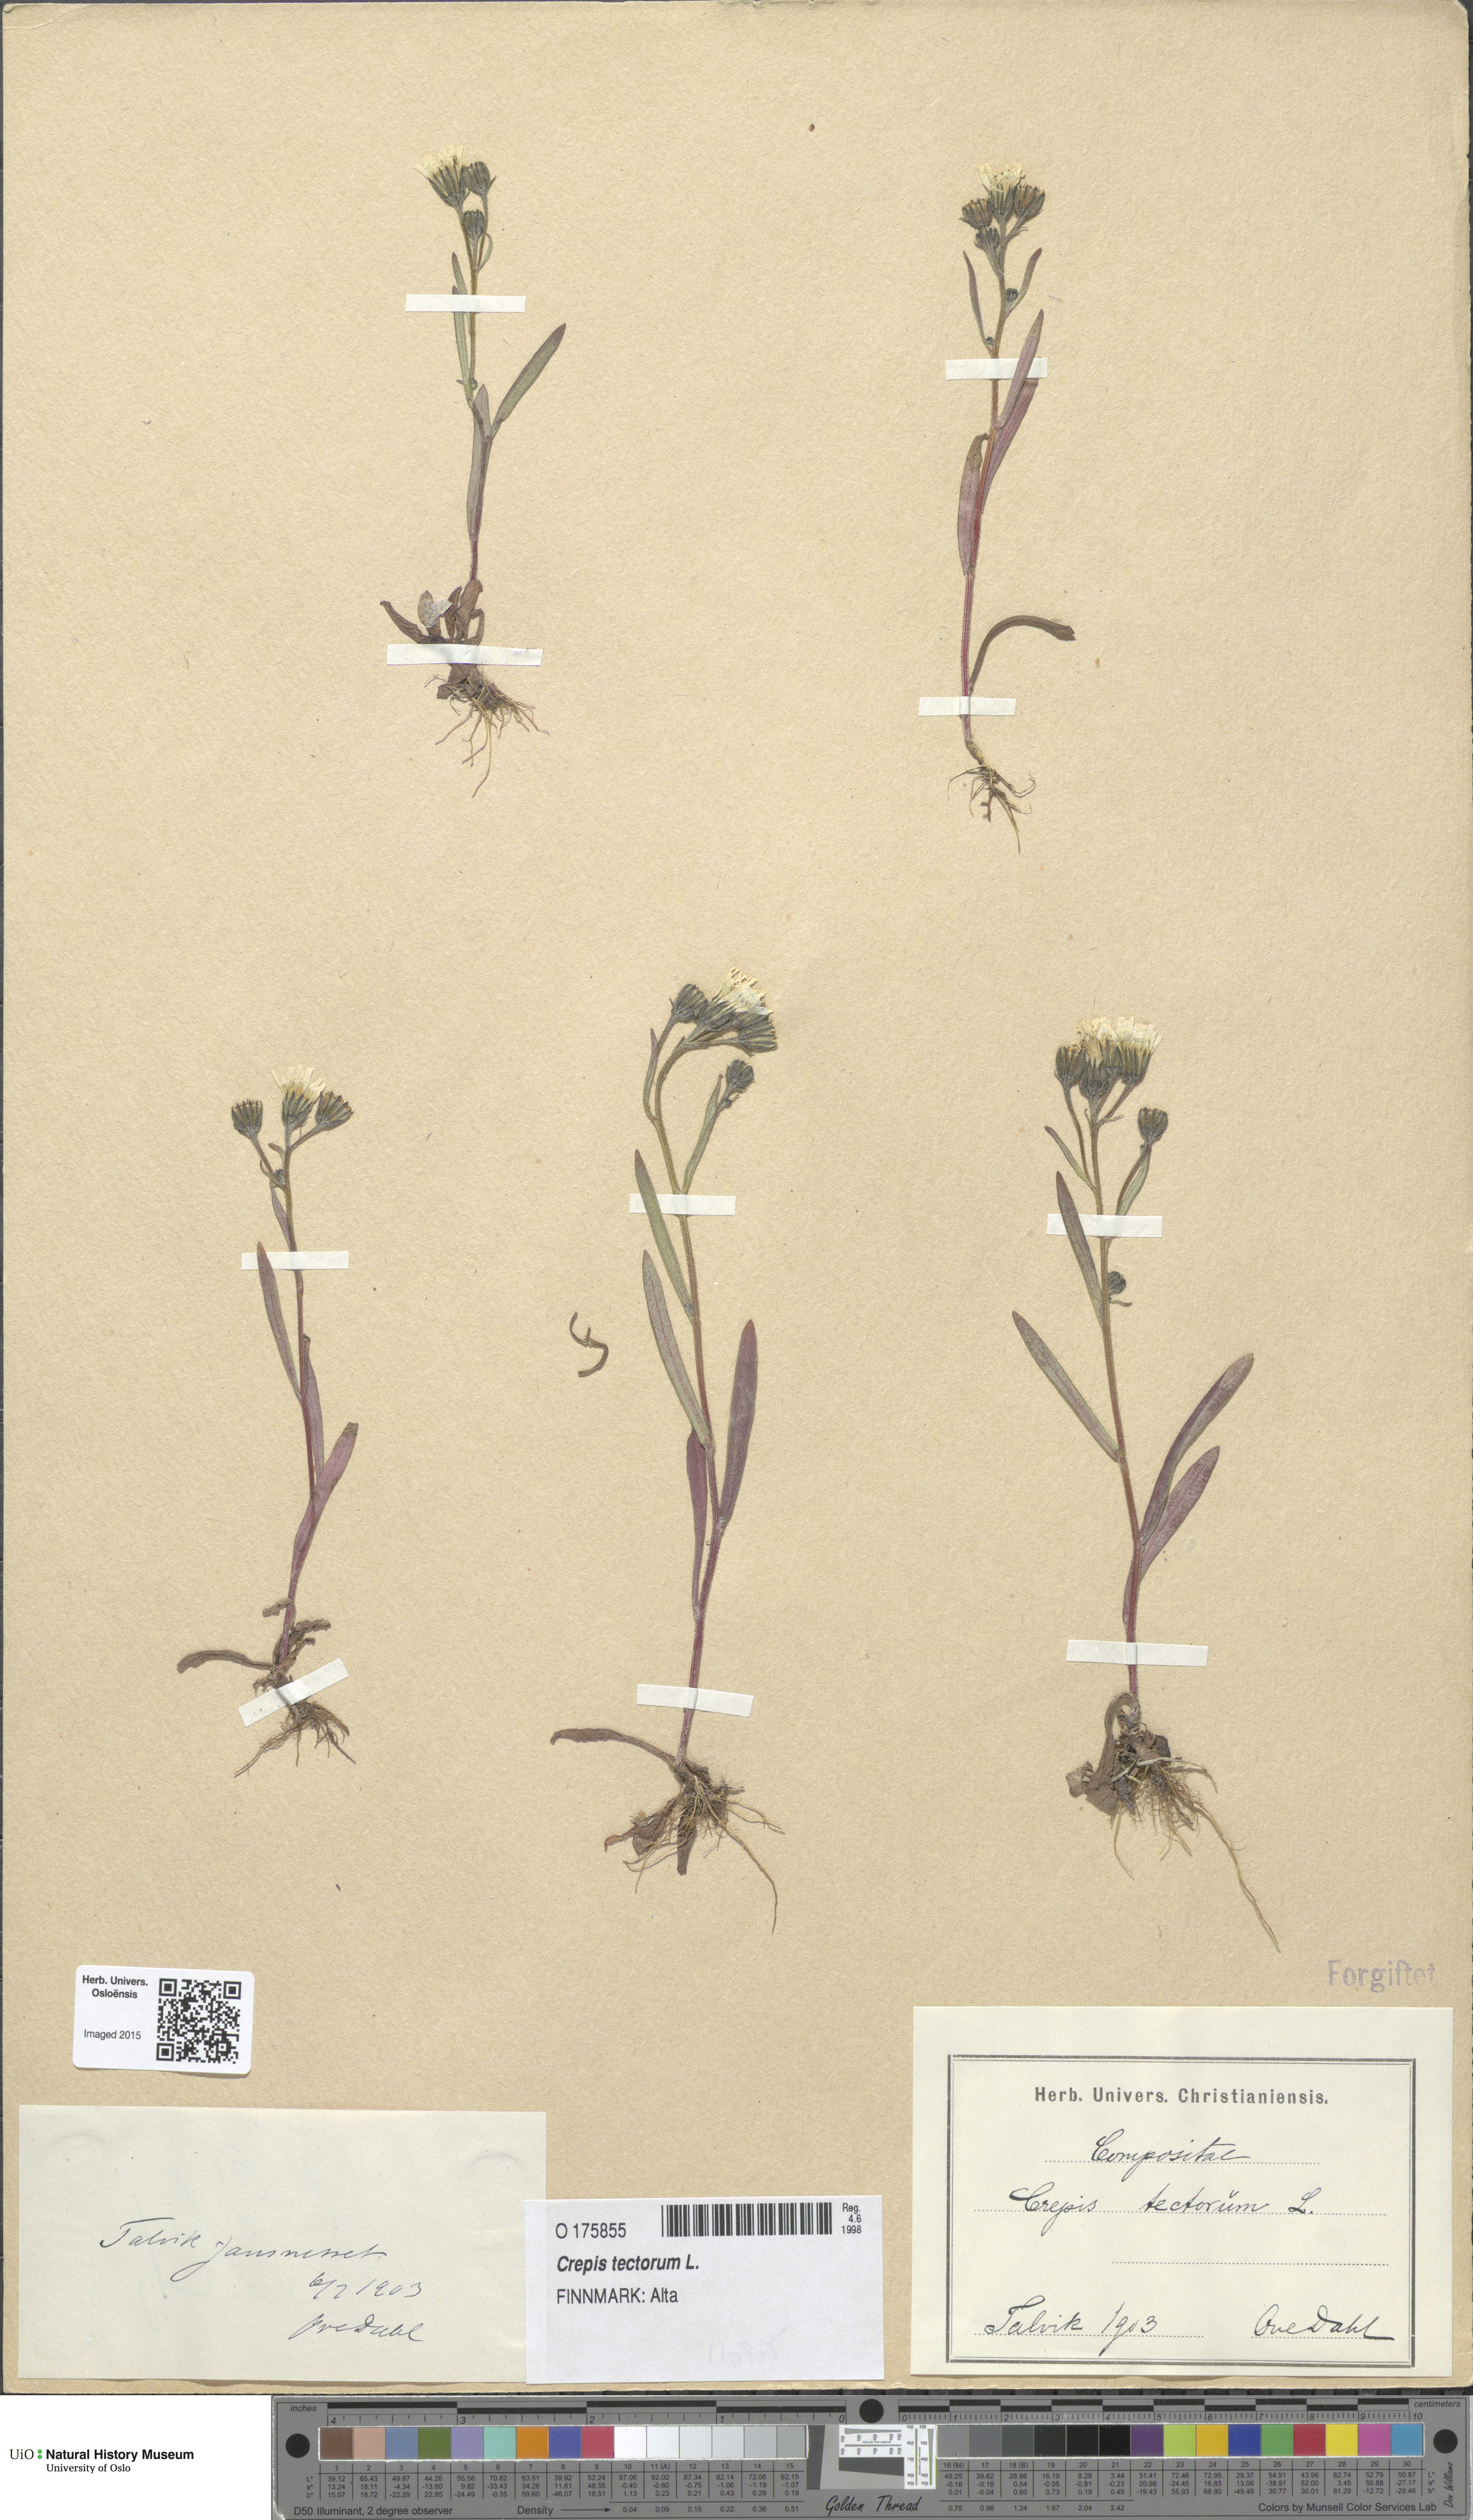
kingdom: Plantae
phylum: Tracheophyta
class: Magnoliopsida
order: Asterales
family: Asteraceae
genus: Crepis
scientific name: Crepis tectorum
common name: Narrow-leaved hawk's-beard
